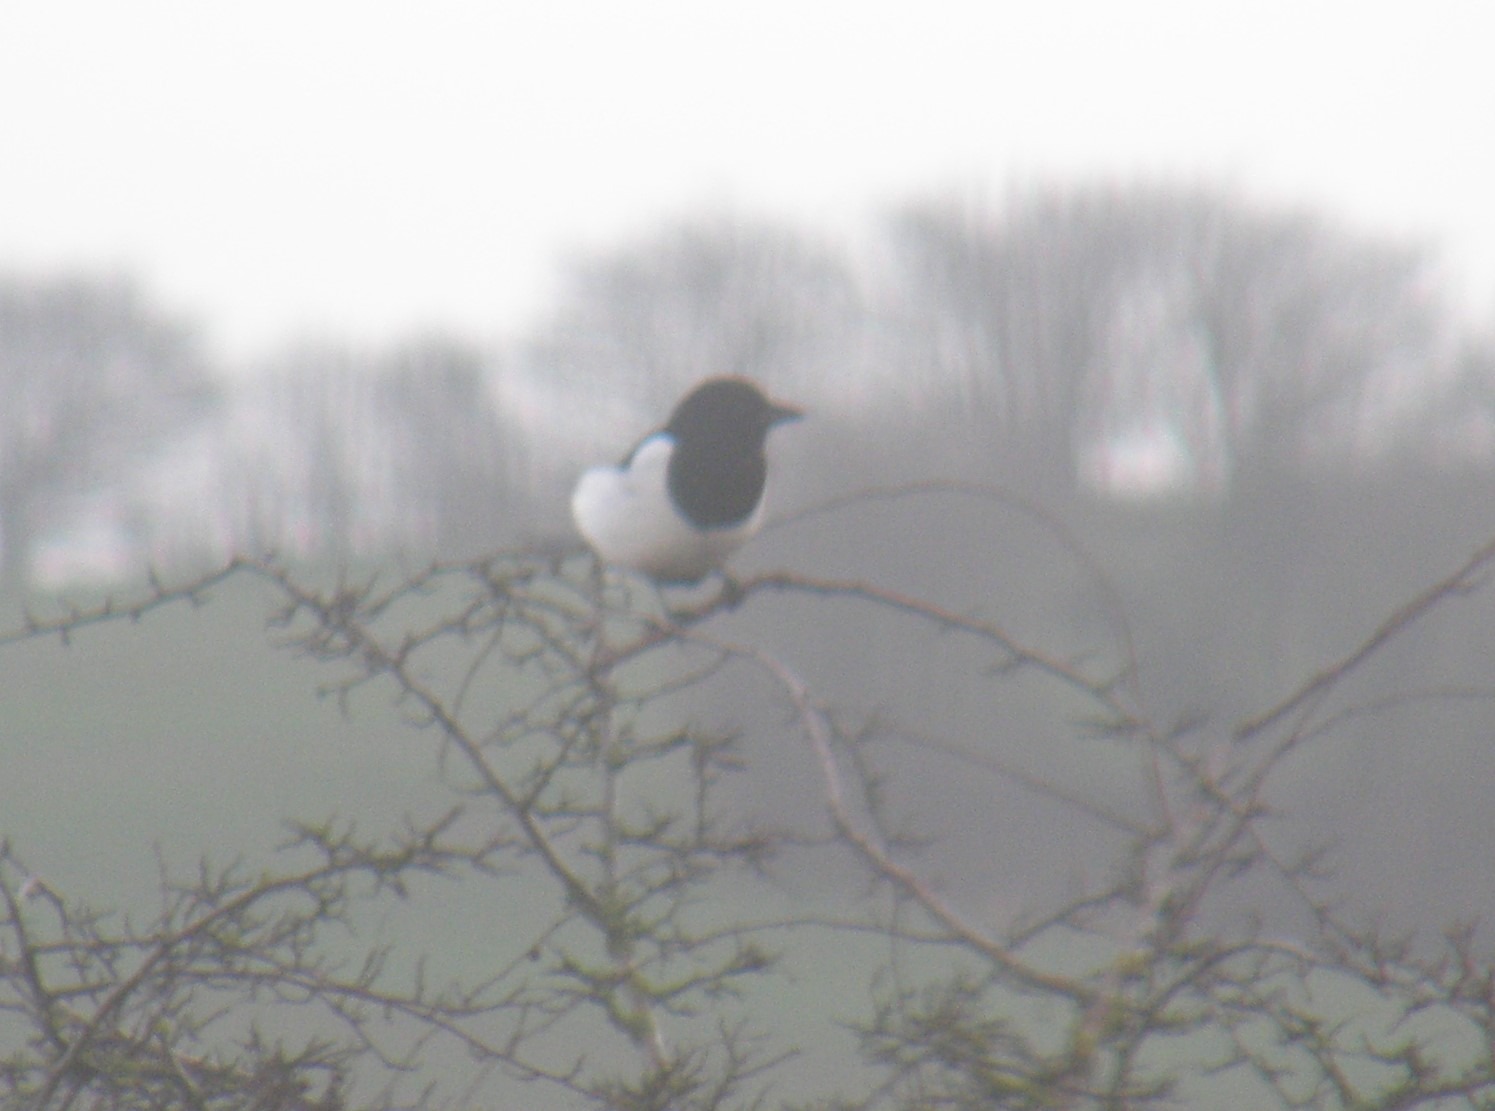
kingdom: Animalia
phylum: Chordata
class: Aves
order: Passeriformes
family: Corvidae
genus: Pica
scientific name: Pica pica
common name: Husskade
